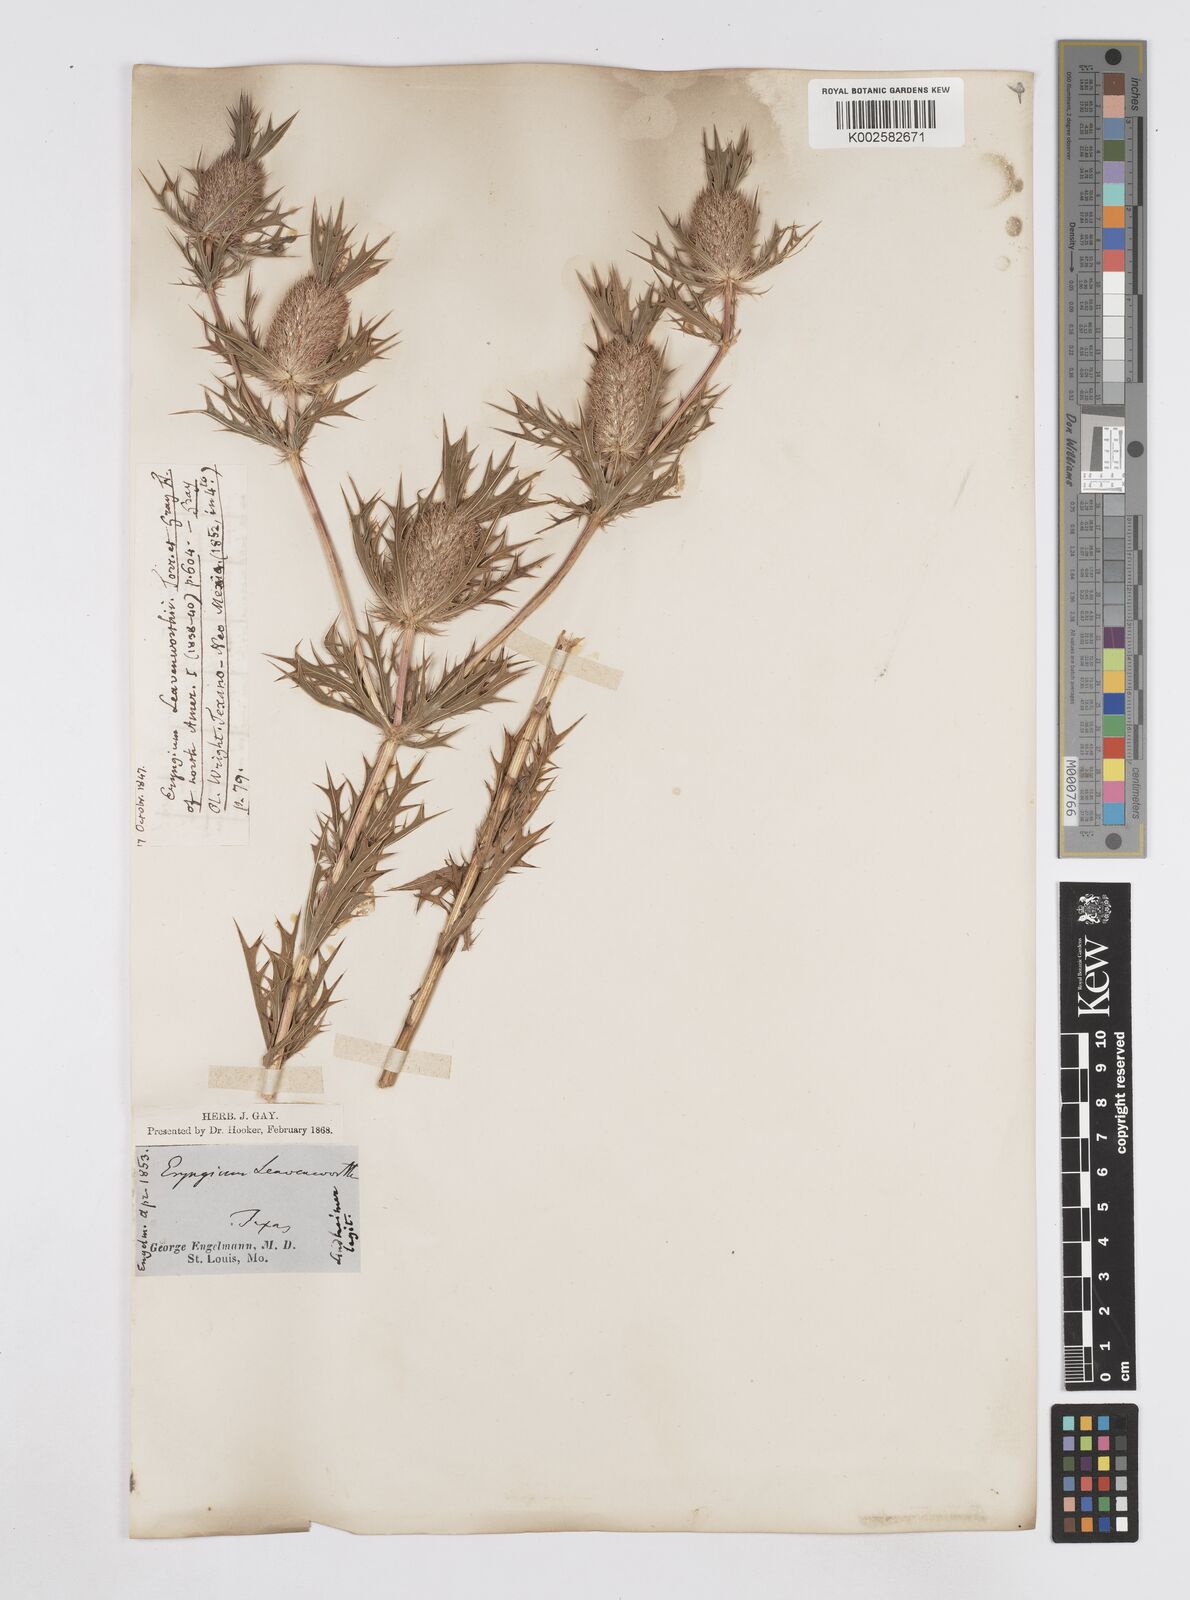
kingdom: Plantae
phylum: Tracheophyta
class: Magnoliopsida
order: Apiales
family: Apiaceae
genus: Eryngium
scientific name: Eryngium leavenworthii
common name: Leavenworth's eryngo
